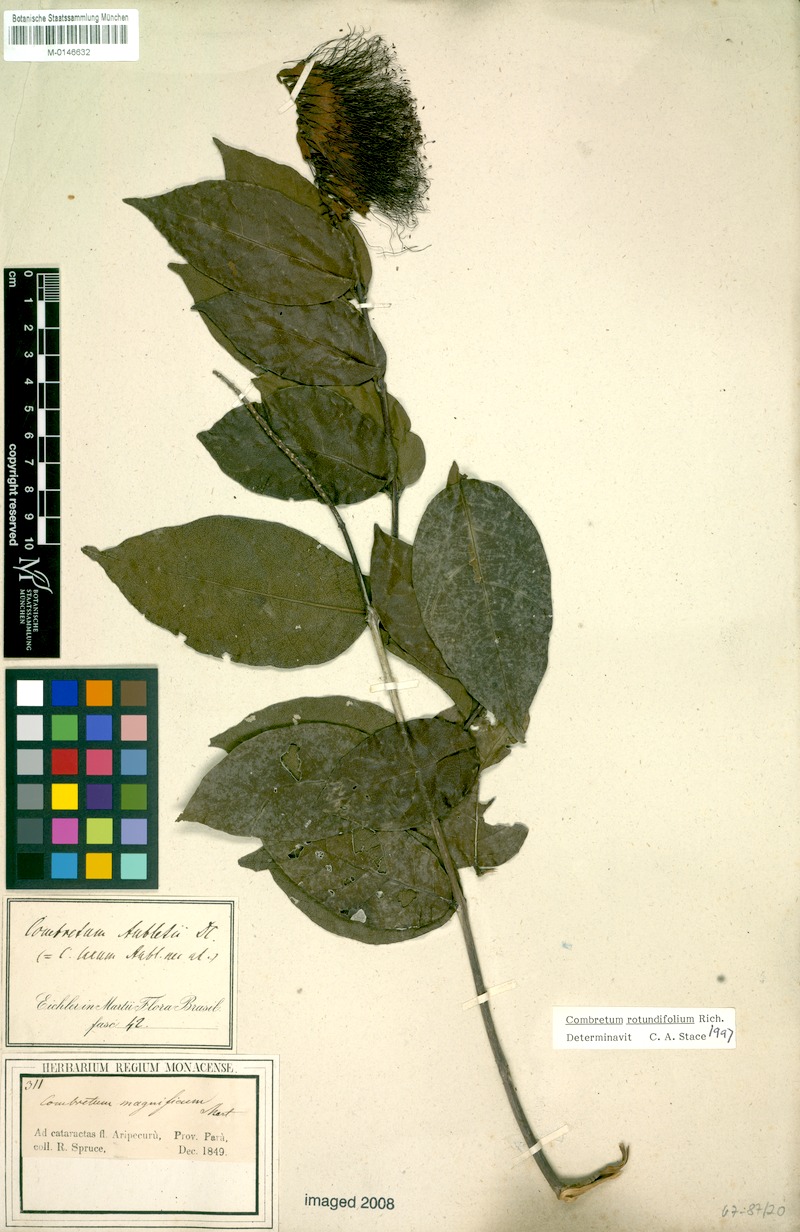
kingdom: Plantae
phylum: Tracheophyta
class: Magnoliopsida
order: Myrtales
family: Combretaceae
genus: Combretum
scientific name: Combretum rotundifolium
